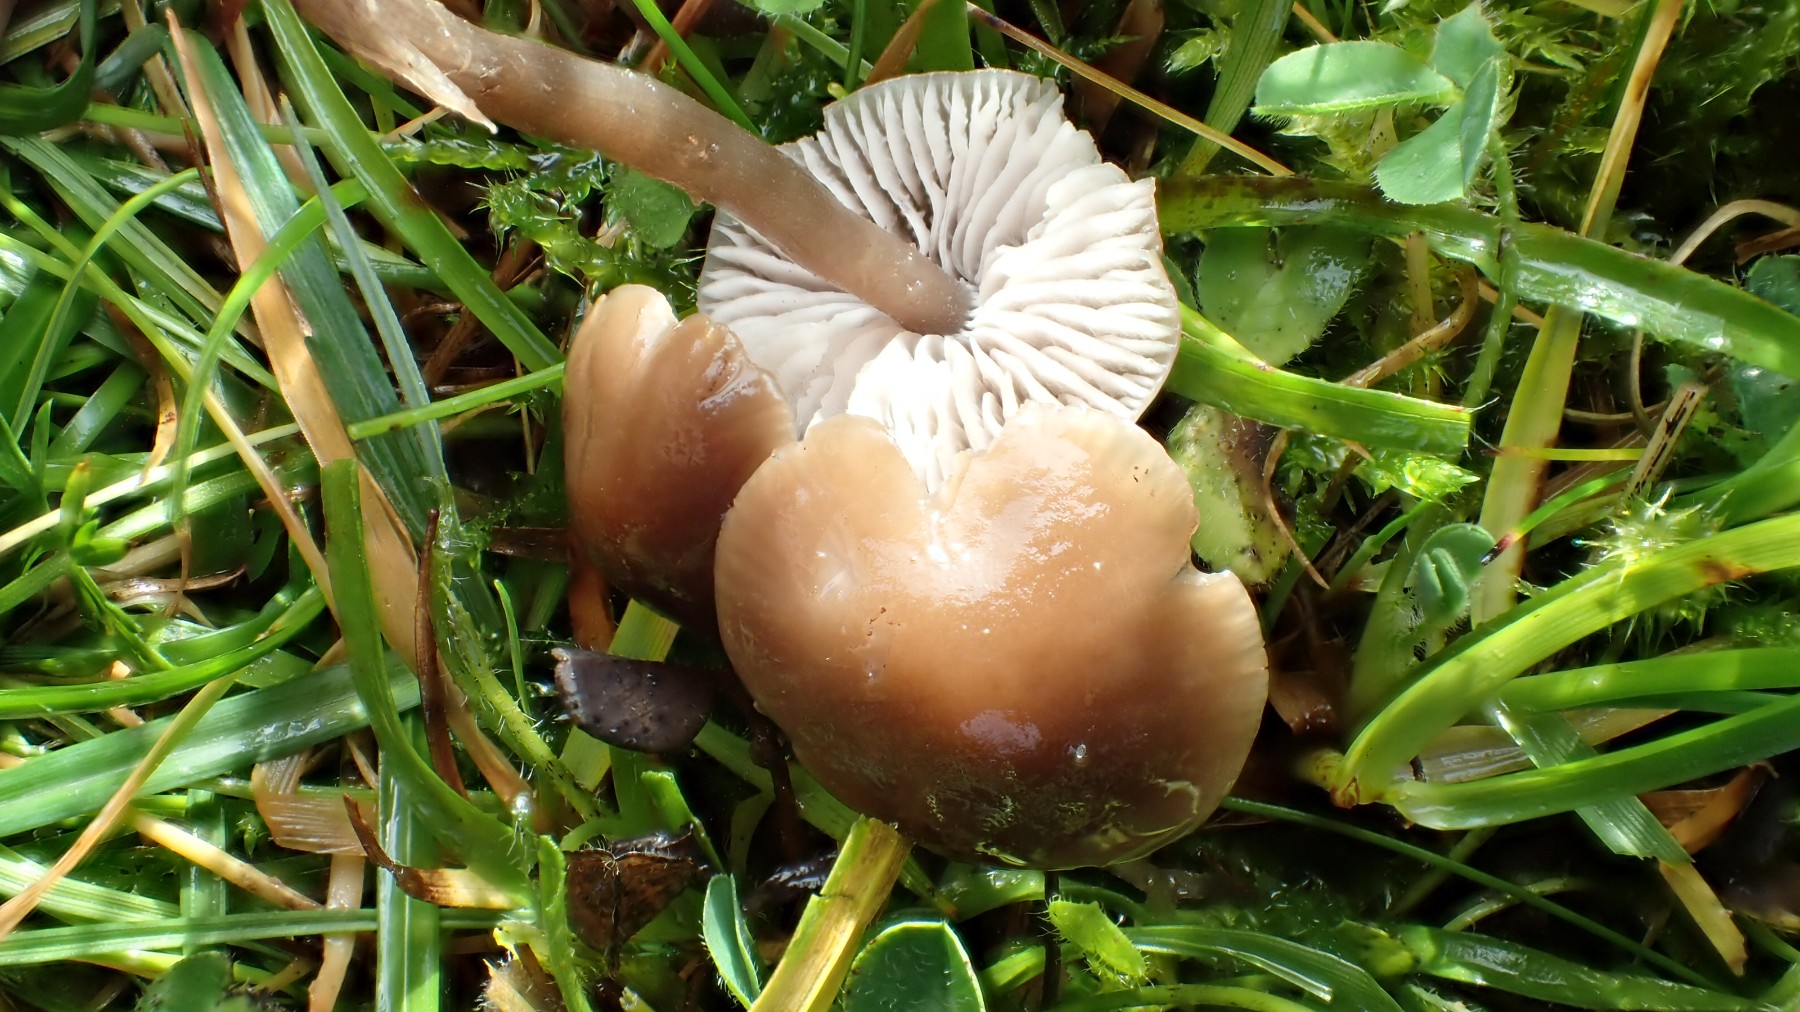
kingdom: Fungi
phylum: Basidiomycota
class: Agaricomycetes
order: Agaricales
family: Tricholomataceae
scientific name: Tricholomataceae
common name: ridderhatfamilien
